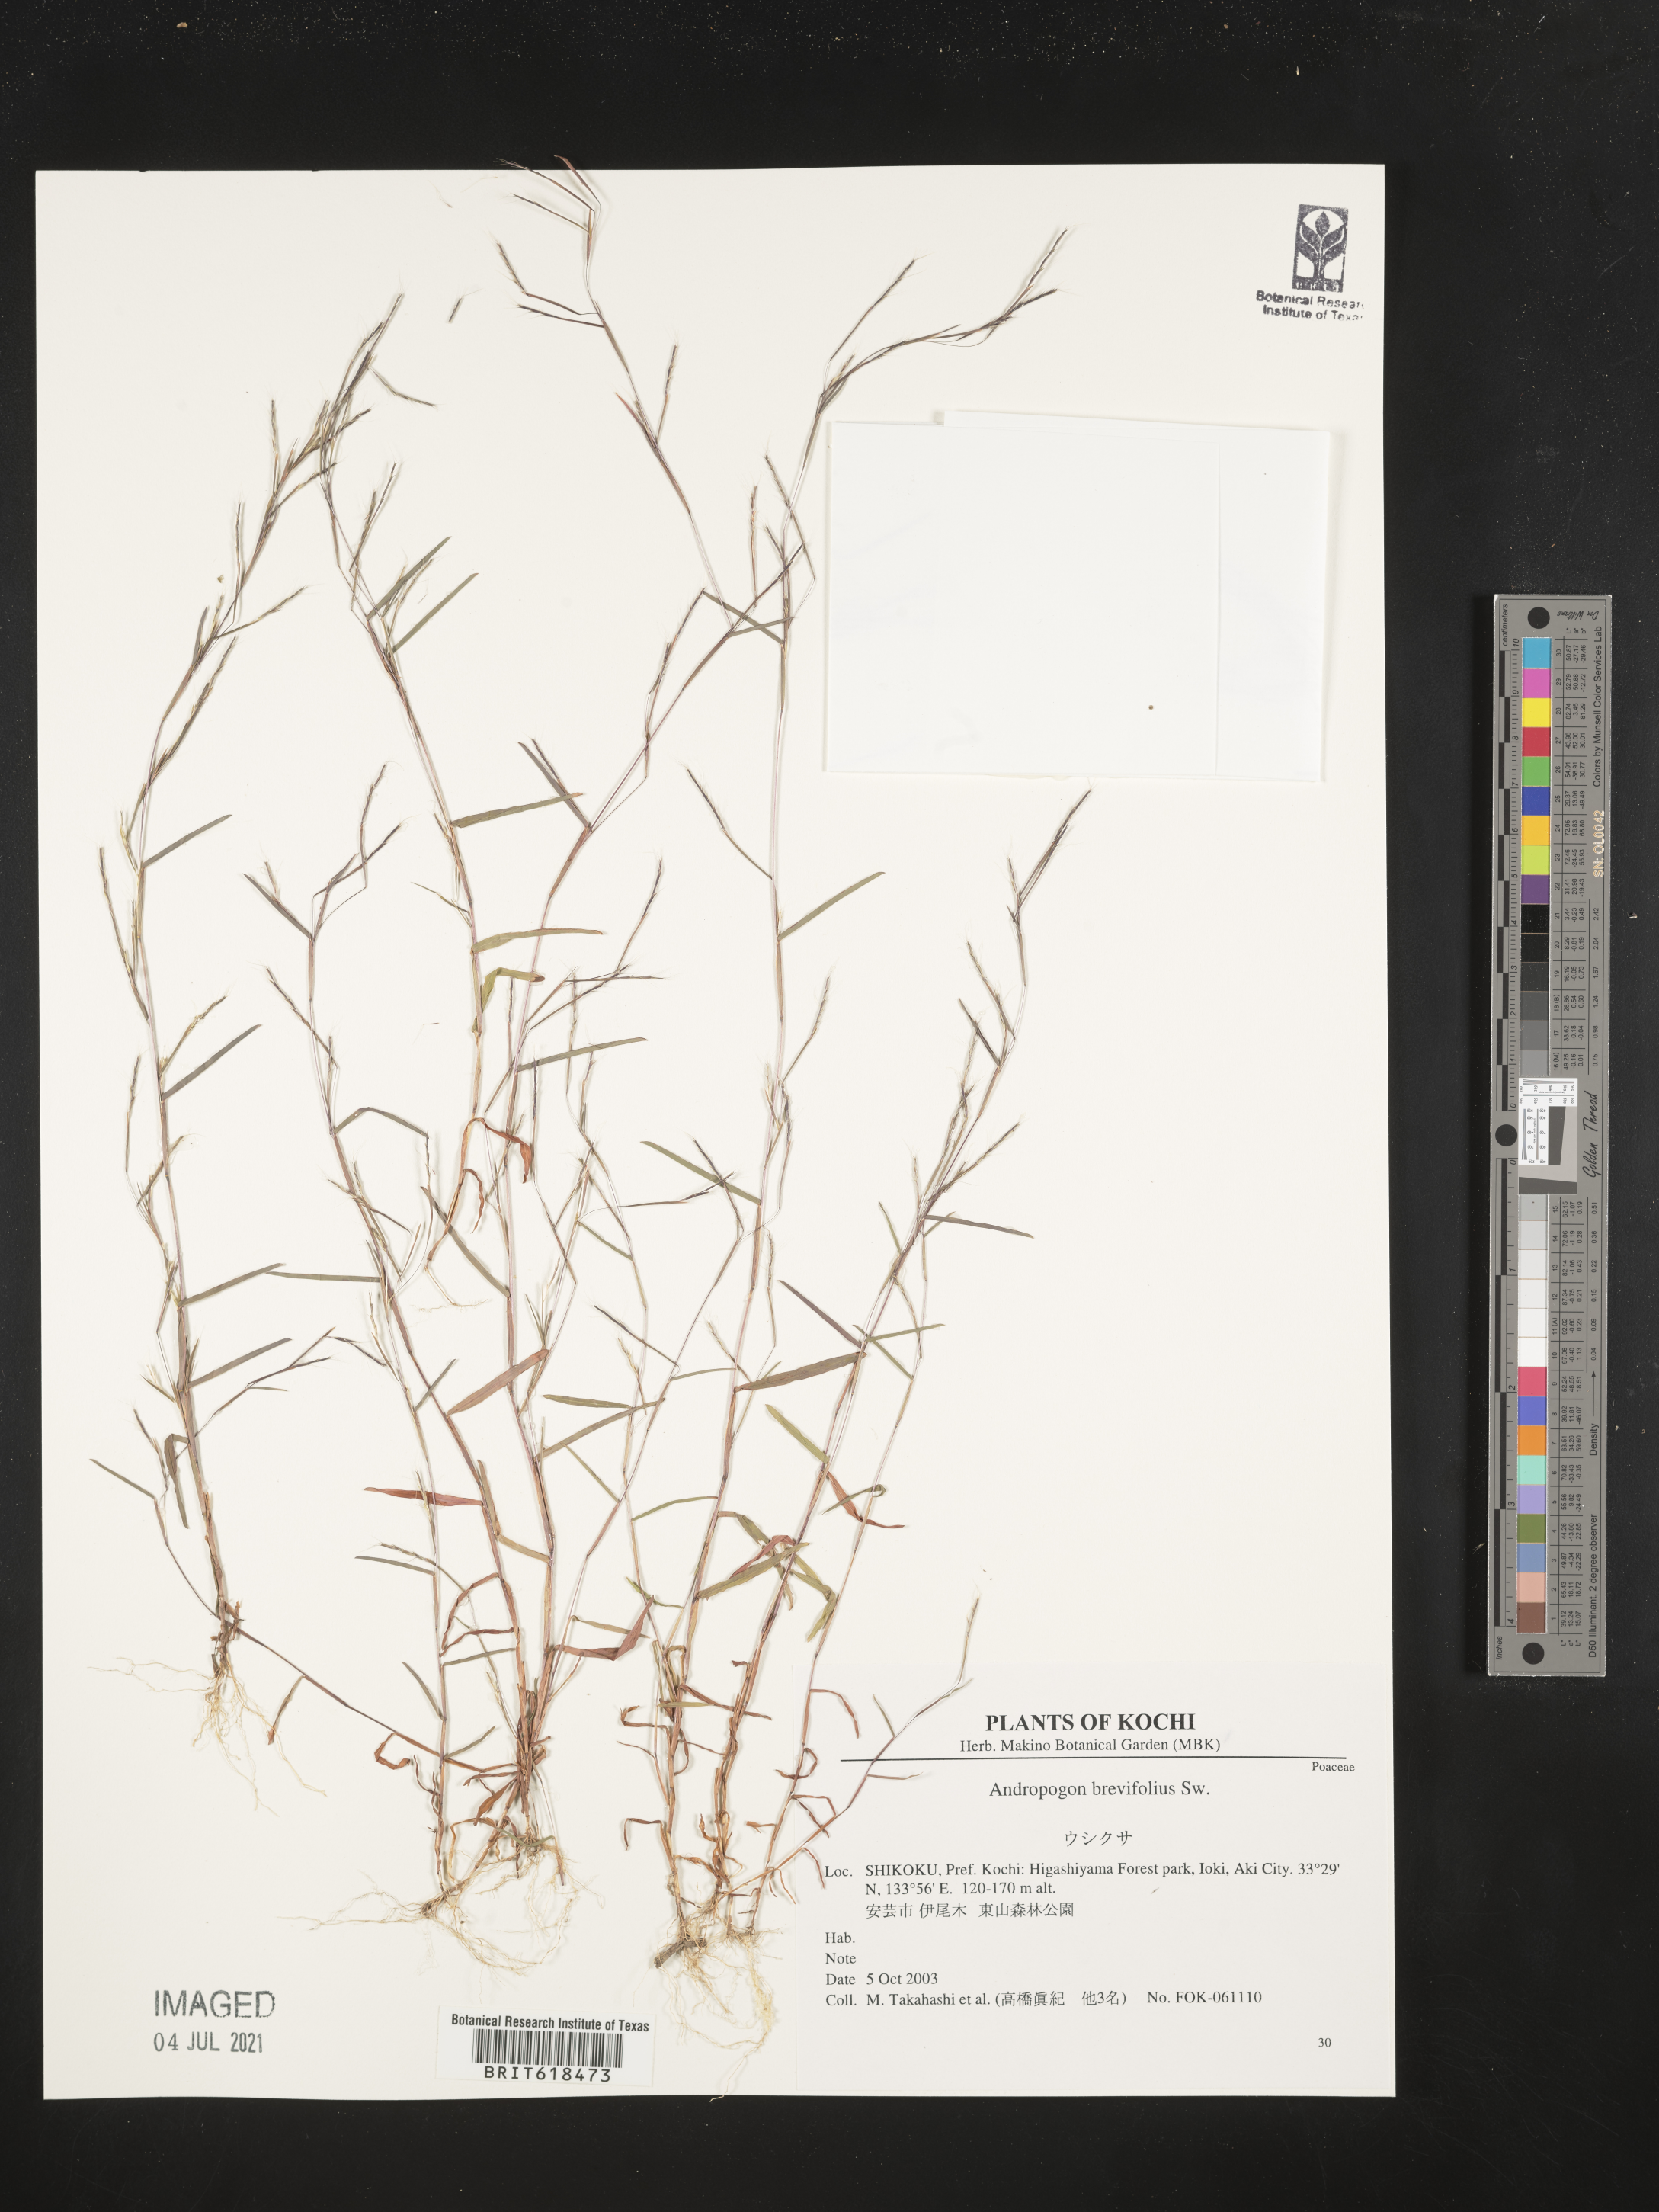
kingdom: Plantae
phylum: Tracheophyta
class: Liliopsida
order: Poales
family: Poaceae
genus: Schizachyrium
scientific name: Schizachyrium brevifolium
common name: Serillo dulce
